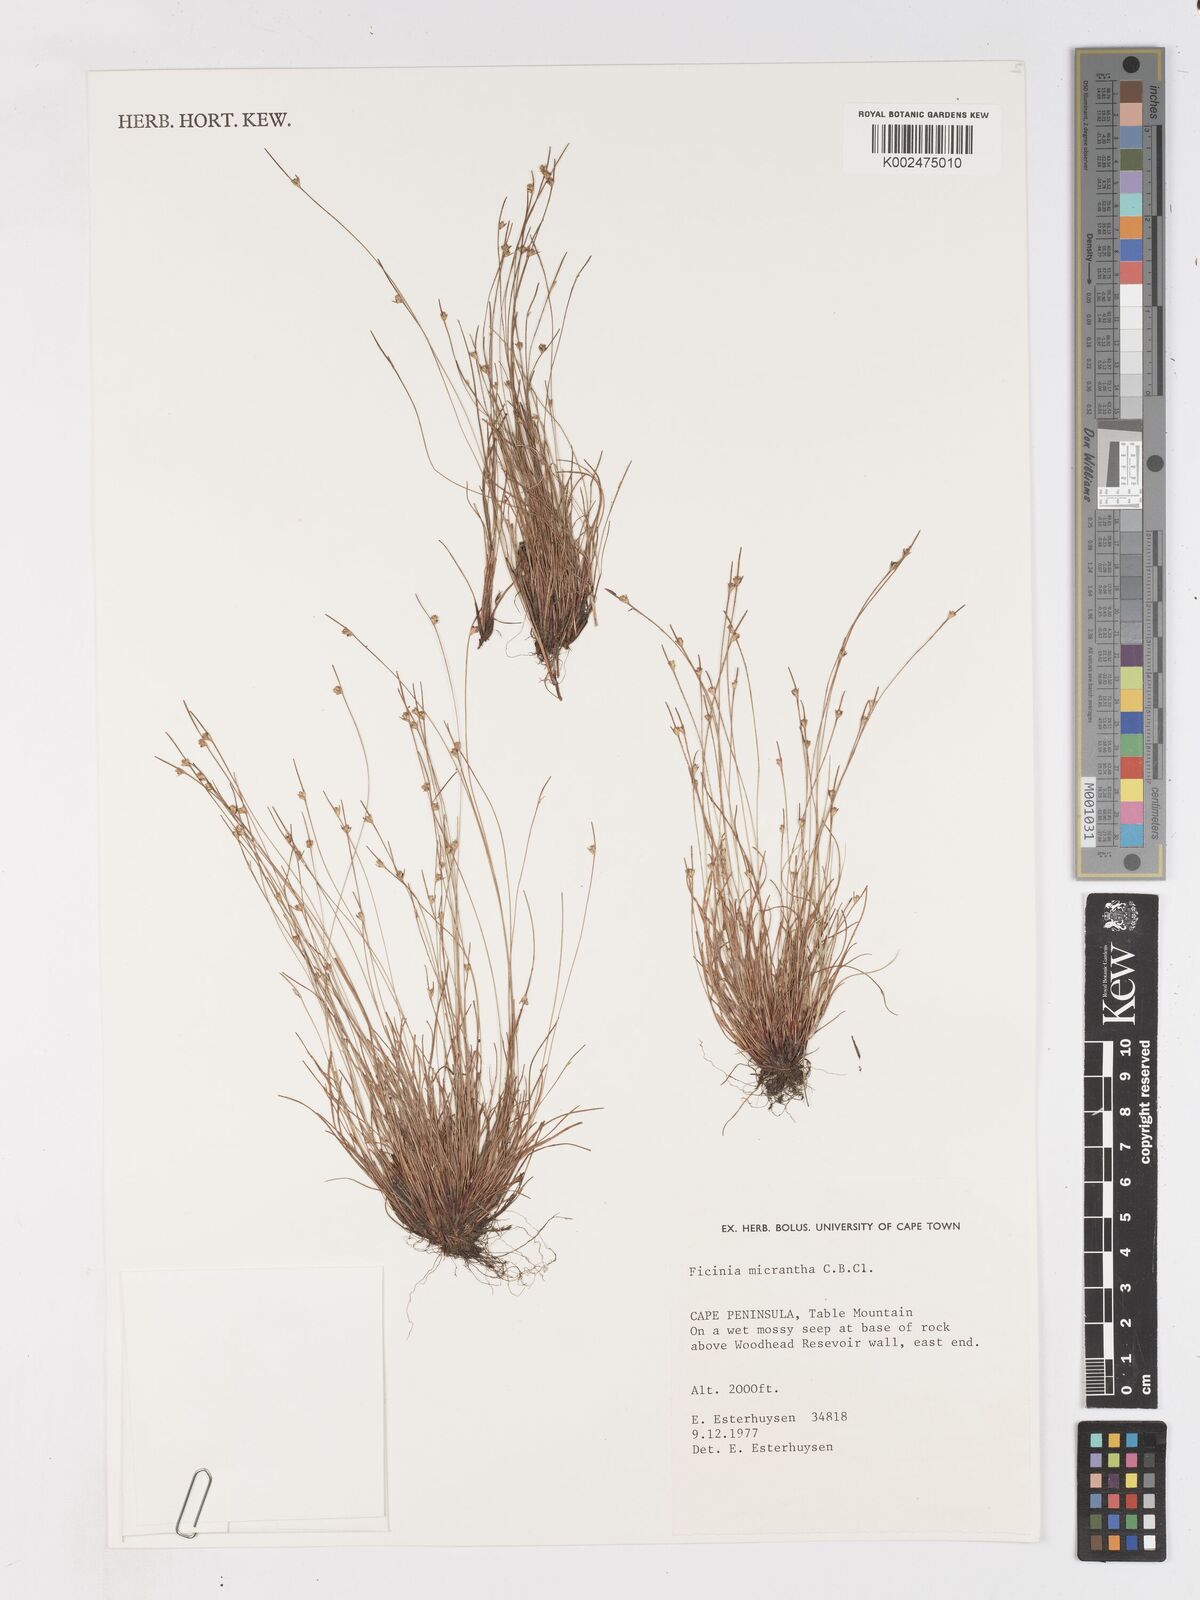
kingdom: Plantae
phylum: Tracheophyta
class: Liliopsida
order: Poales
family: Cyperaceae
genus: Ficinia
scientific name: Ficinia micrantha
